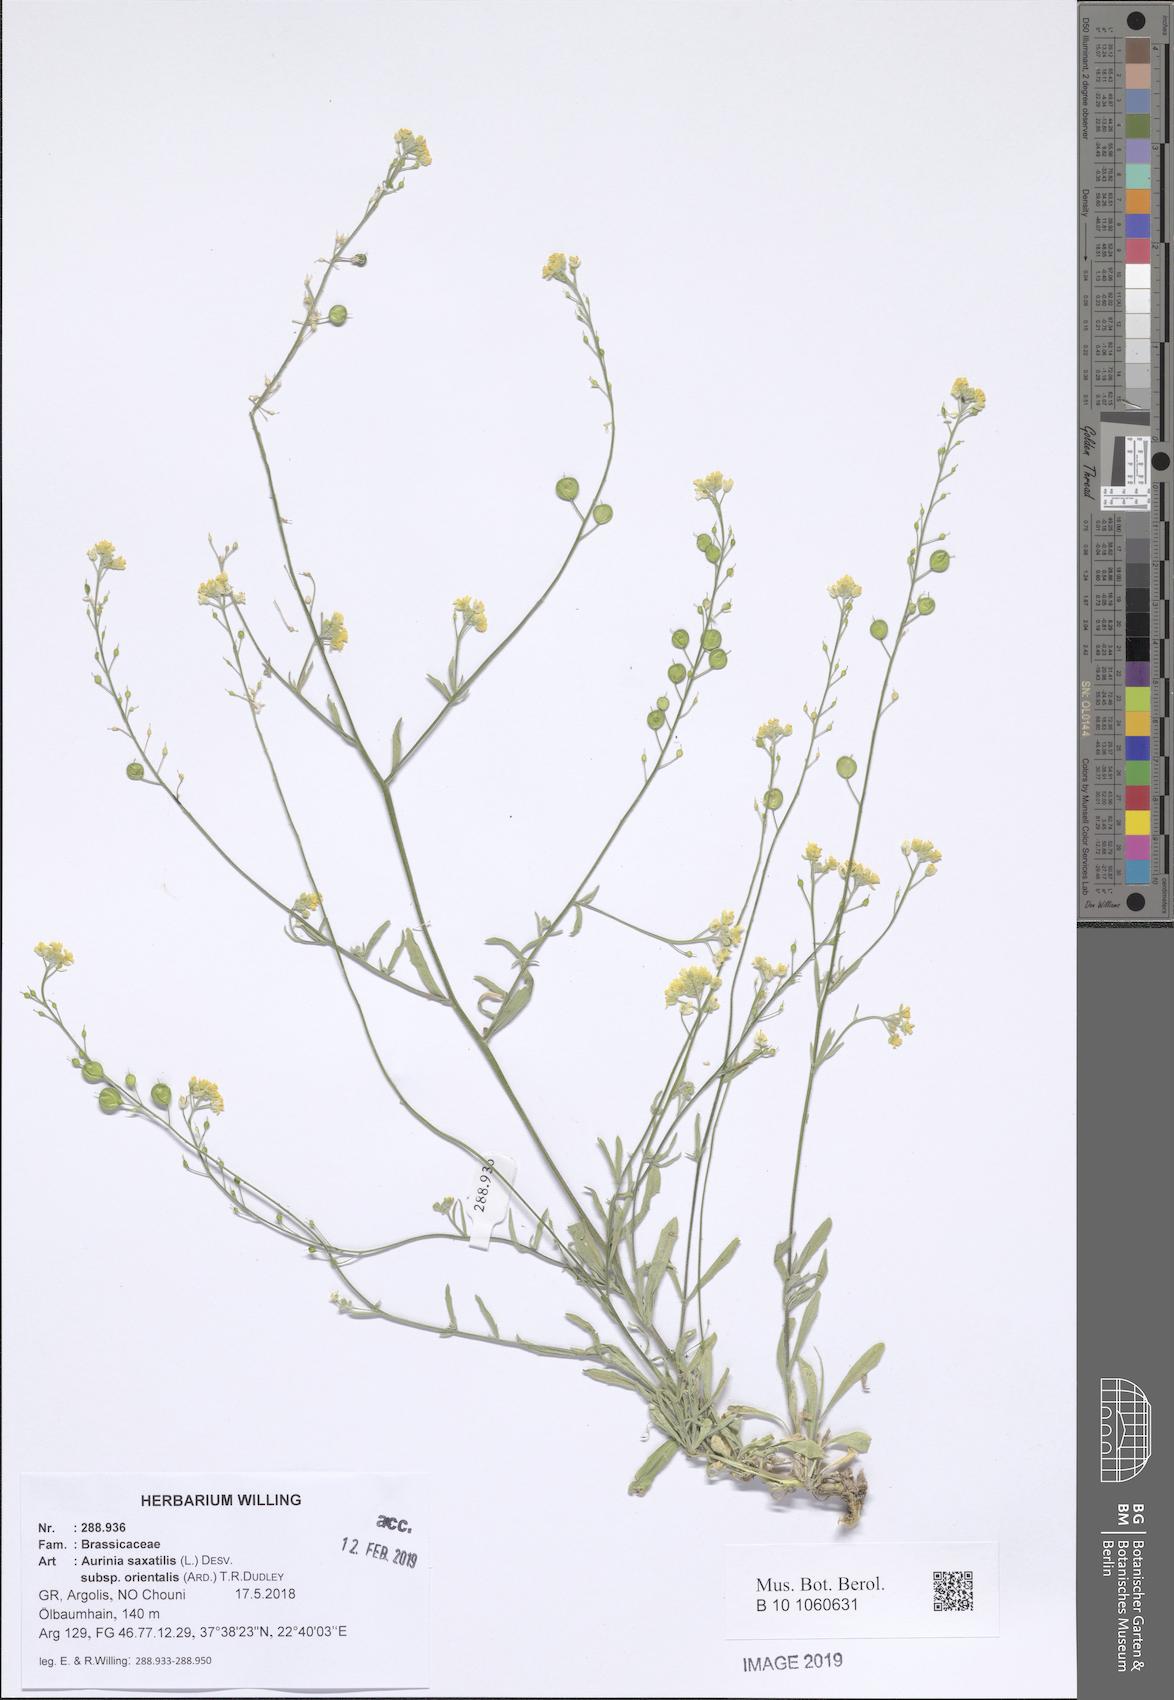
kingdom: Plantae
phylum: Tracheophyta
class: Magnoliopsida
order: Brassicales
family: Brassicaceae
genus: Aurinia
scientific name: Aurinia saxatilis
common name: Golden-tuft alyssum
